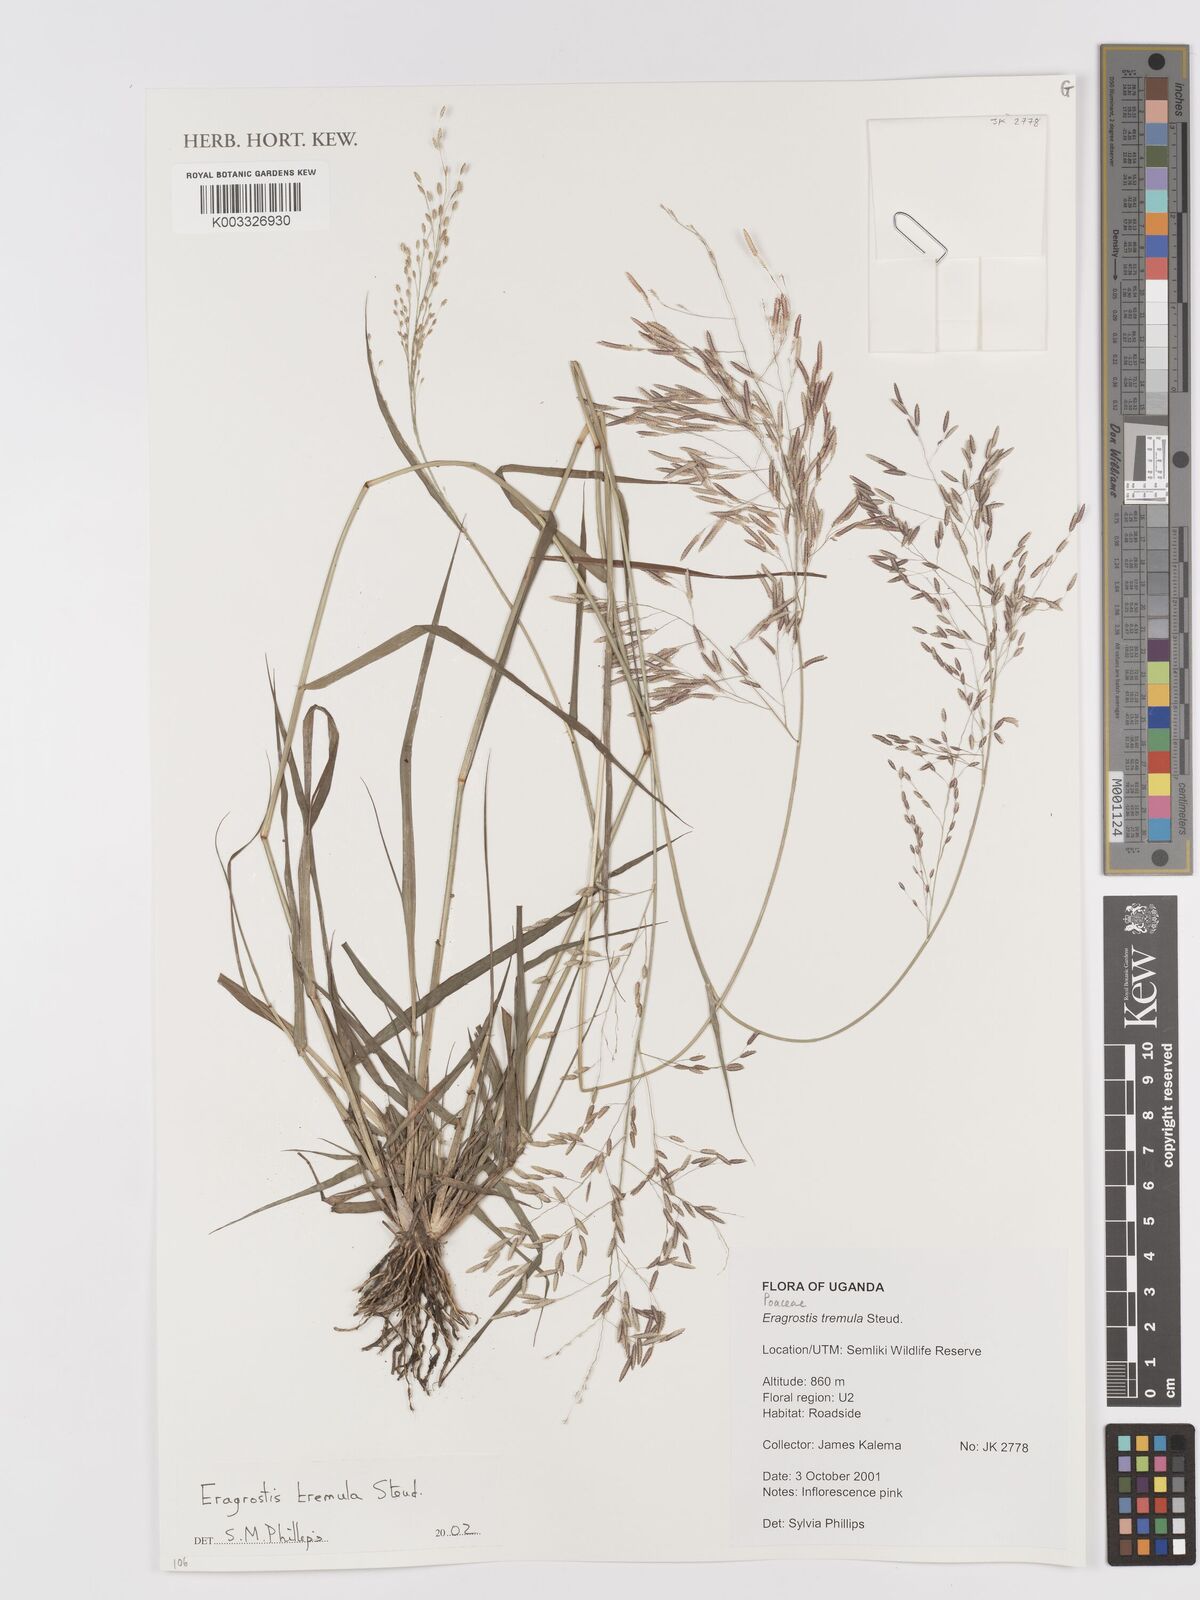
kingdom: Plantae
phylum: Tracheophyta
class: Liliopsida
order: Poales
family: Poaceae
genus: Eragrostis
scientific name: Eragrostis tremula
